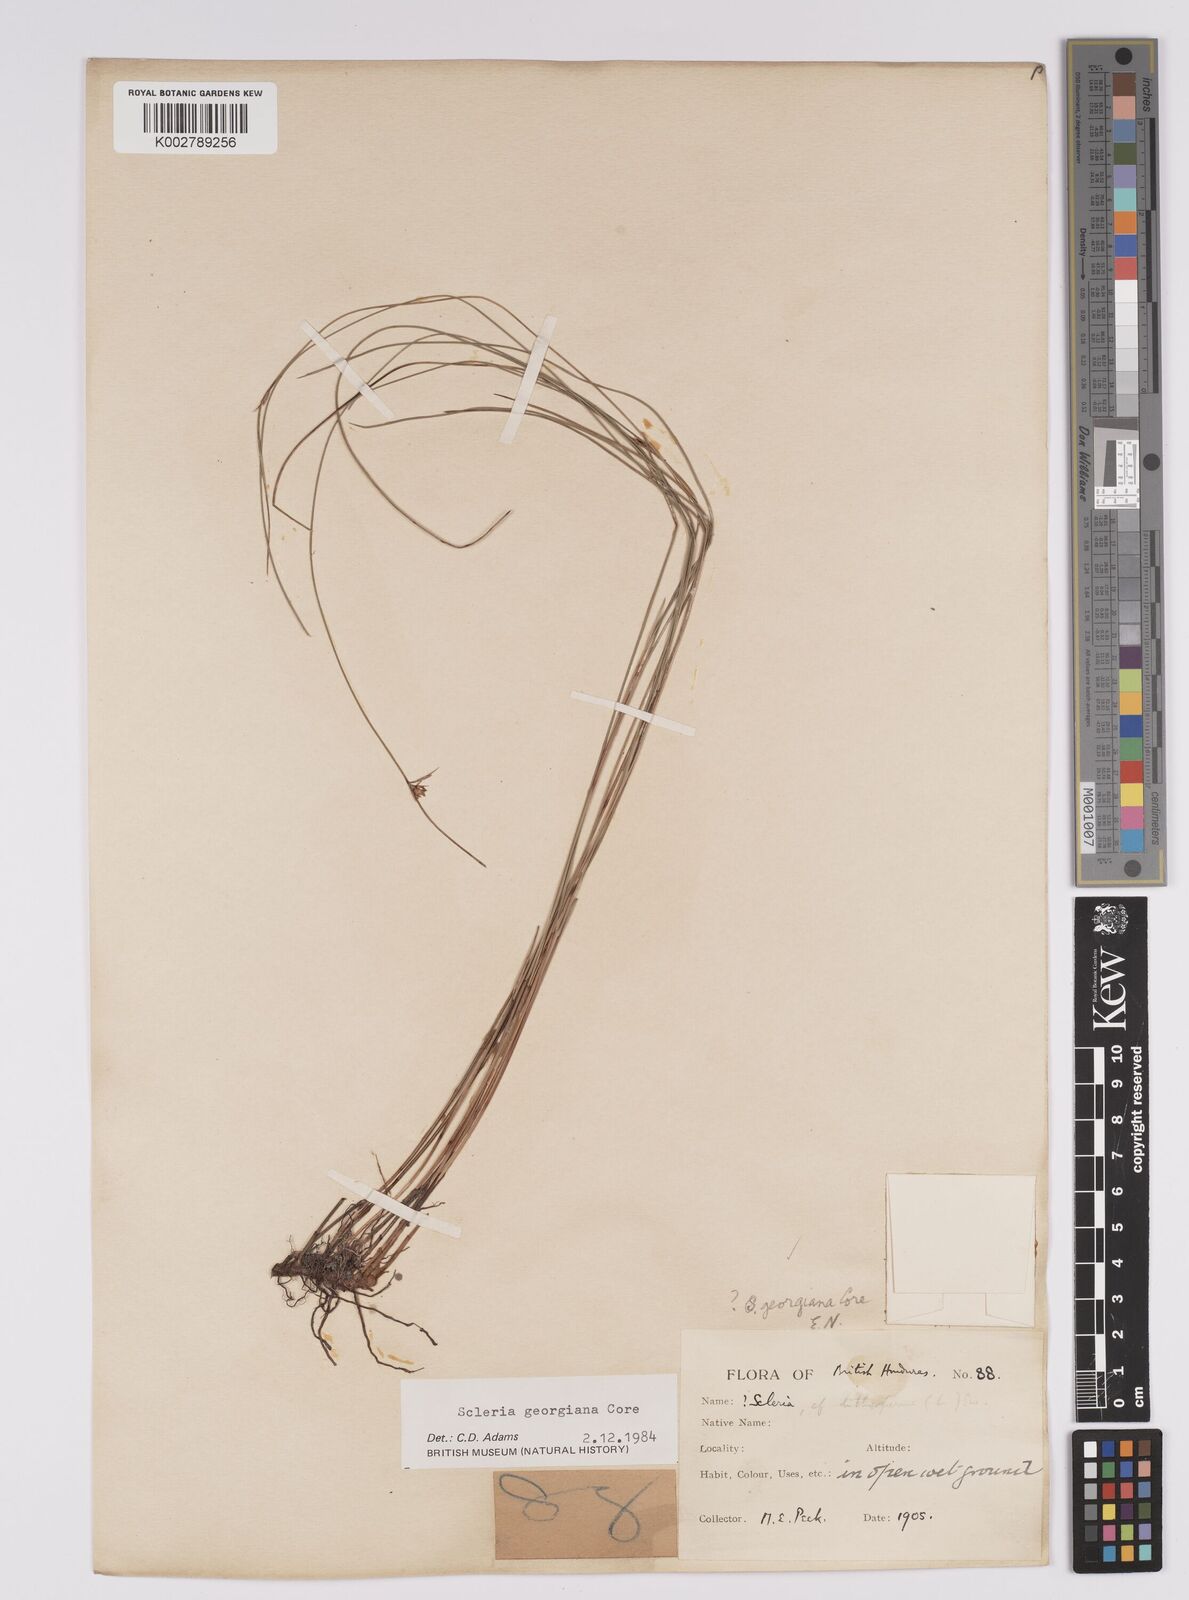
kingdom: Plantae
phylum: Tracheophyta
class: Liliopsida
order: Poales
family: Cyperaceae
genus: Scleria
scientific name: Scleria georgiana
